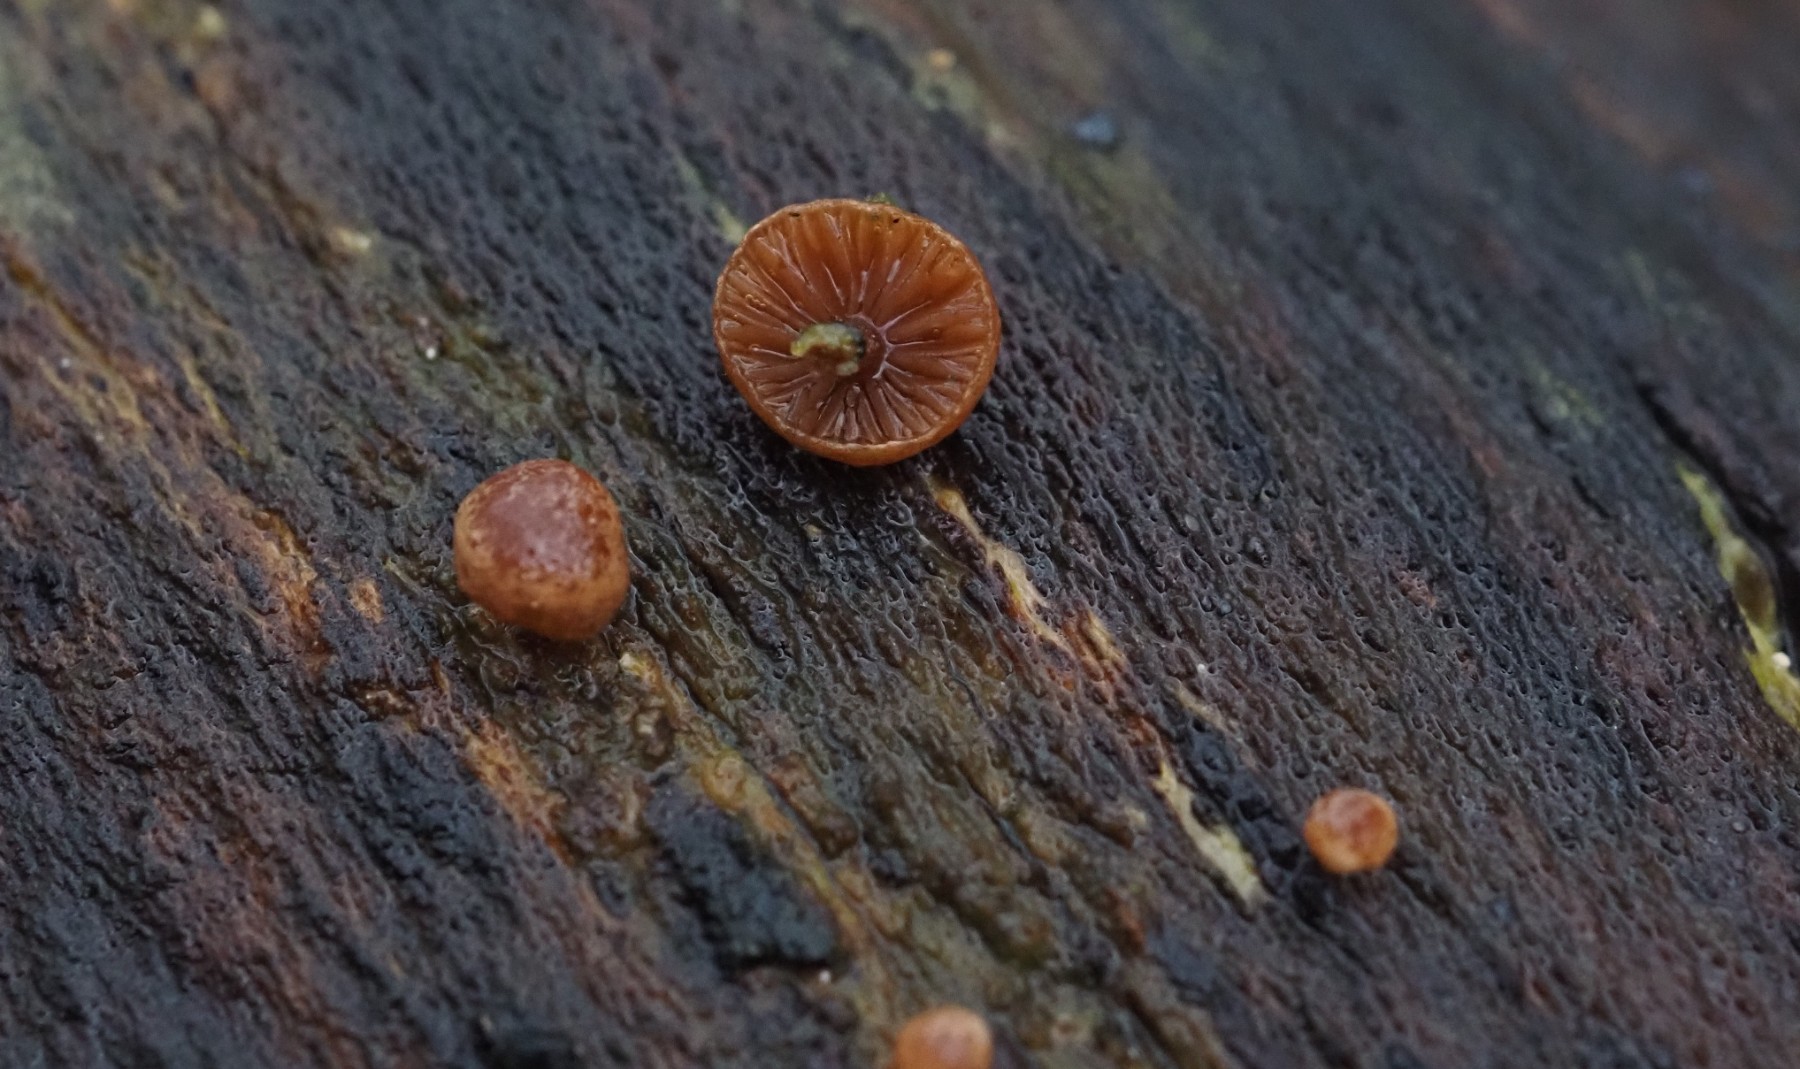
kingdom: Fungi
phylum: Basidiomycota
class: Agaricomycetes
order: Agaricales
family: Strophariaceae
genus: Deconica
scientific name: Deconica horizontalis
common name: ved-stråhat
